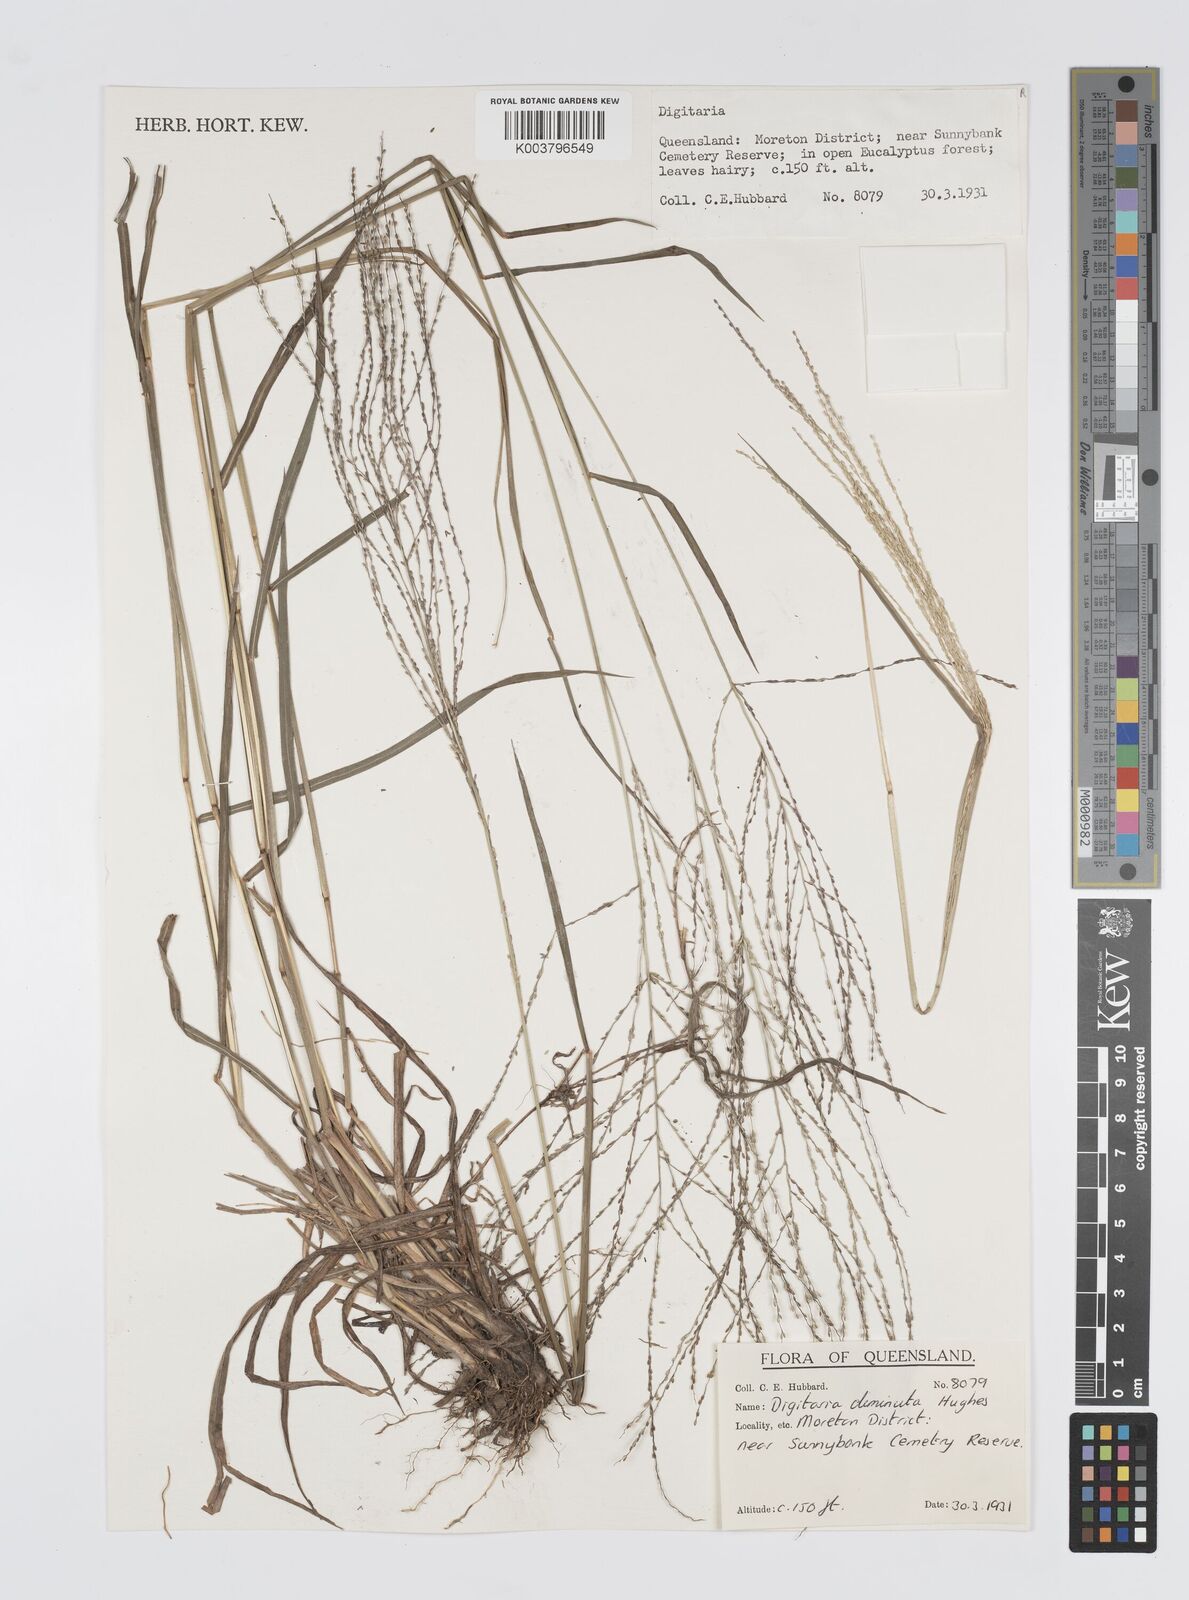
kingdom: Plantae
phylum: Tracheophyta
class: Liliopsida
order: Poales
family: Poaceae
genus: Digitaria
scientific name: Digitaria breviglumis
